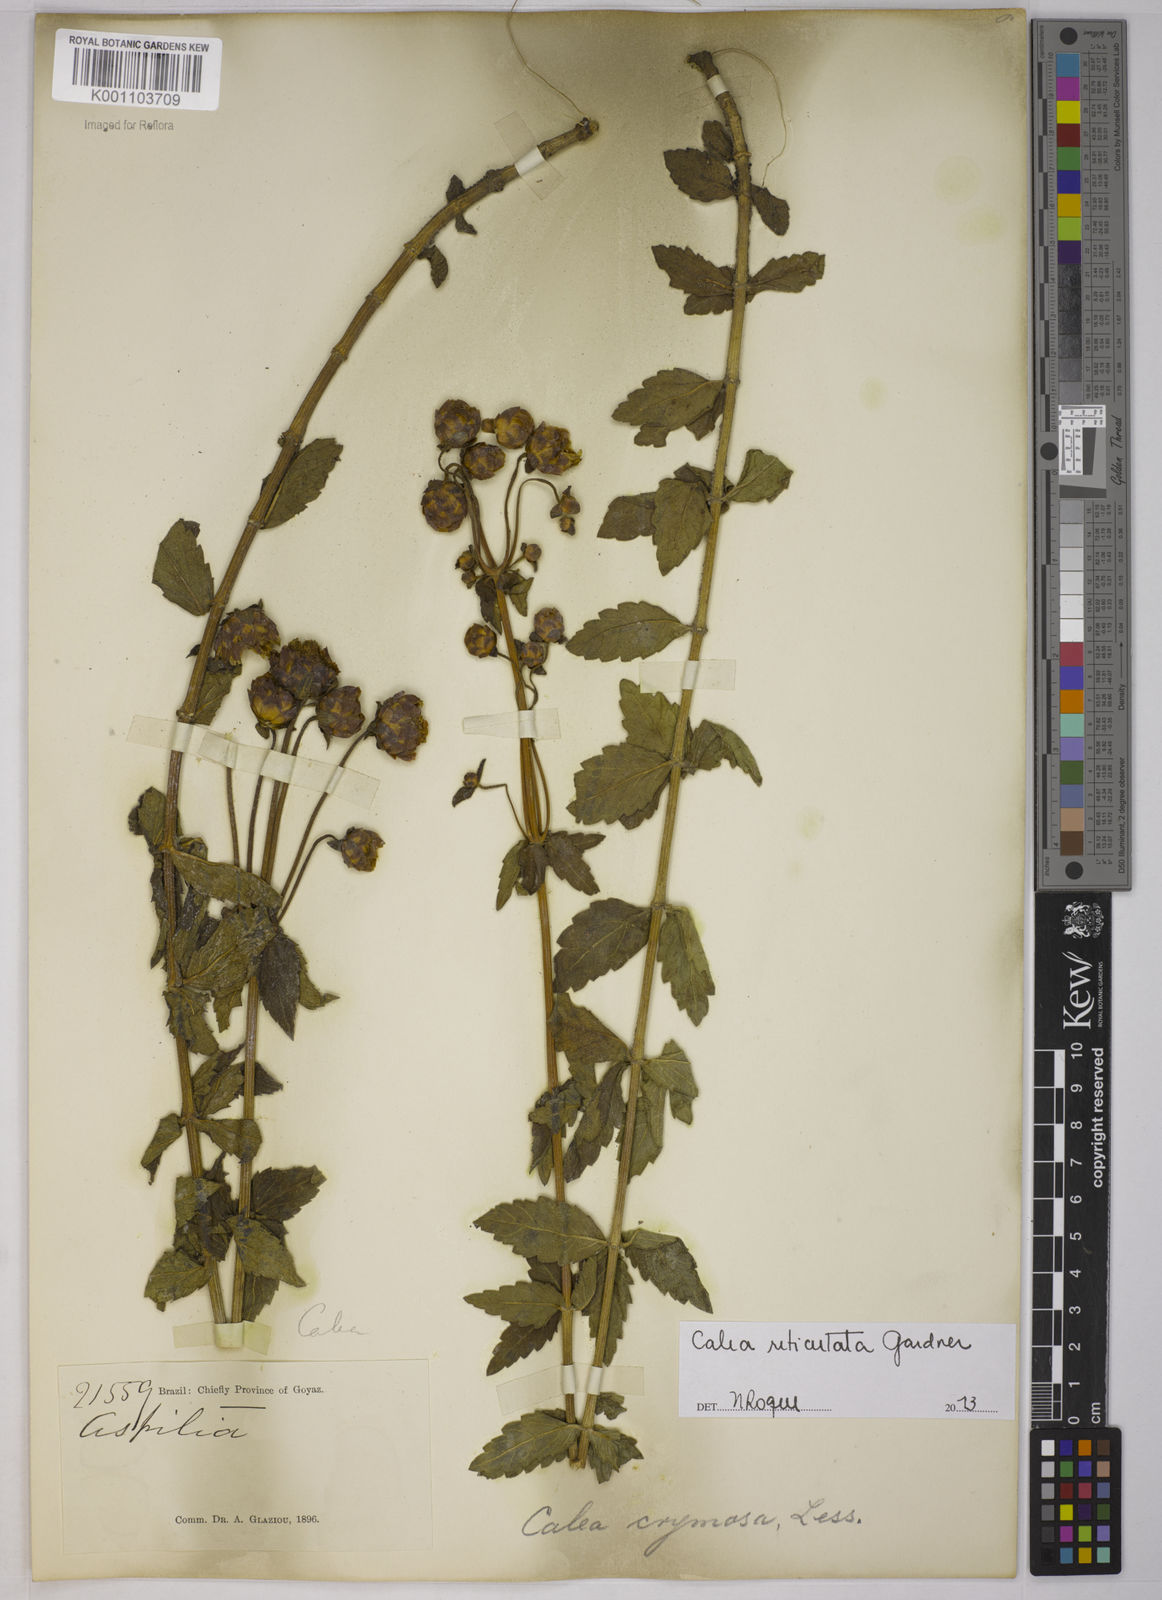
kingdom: Plantae
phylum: Tracheophyta
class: Magnoliopsida
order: Asterales
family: Asteraceae
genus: Calea
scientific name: Calea reticulata
